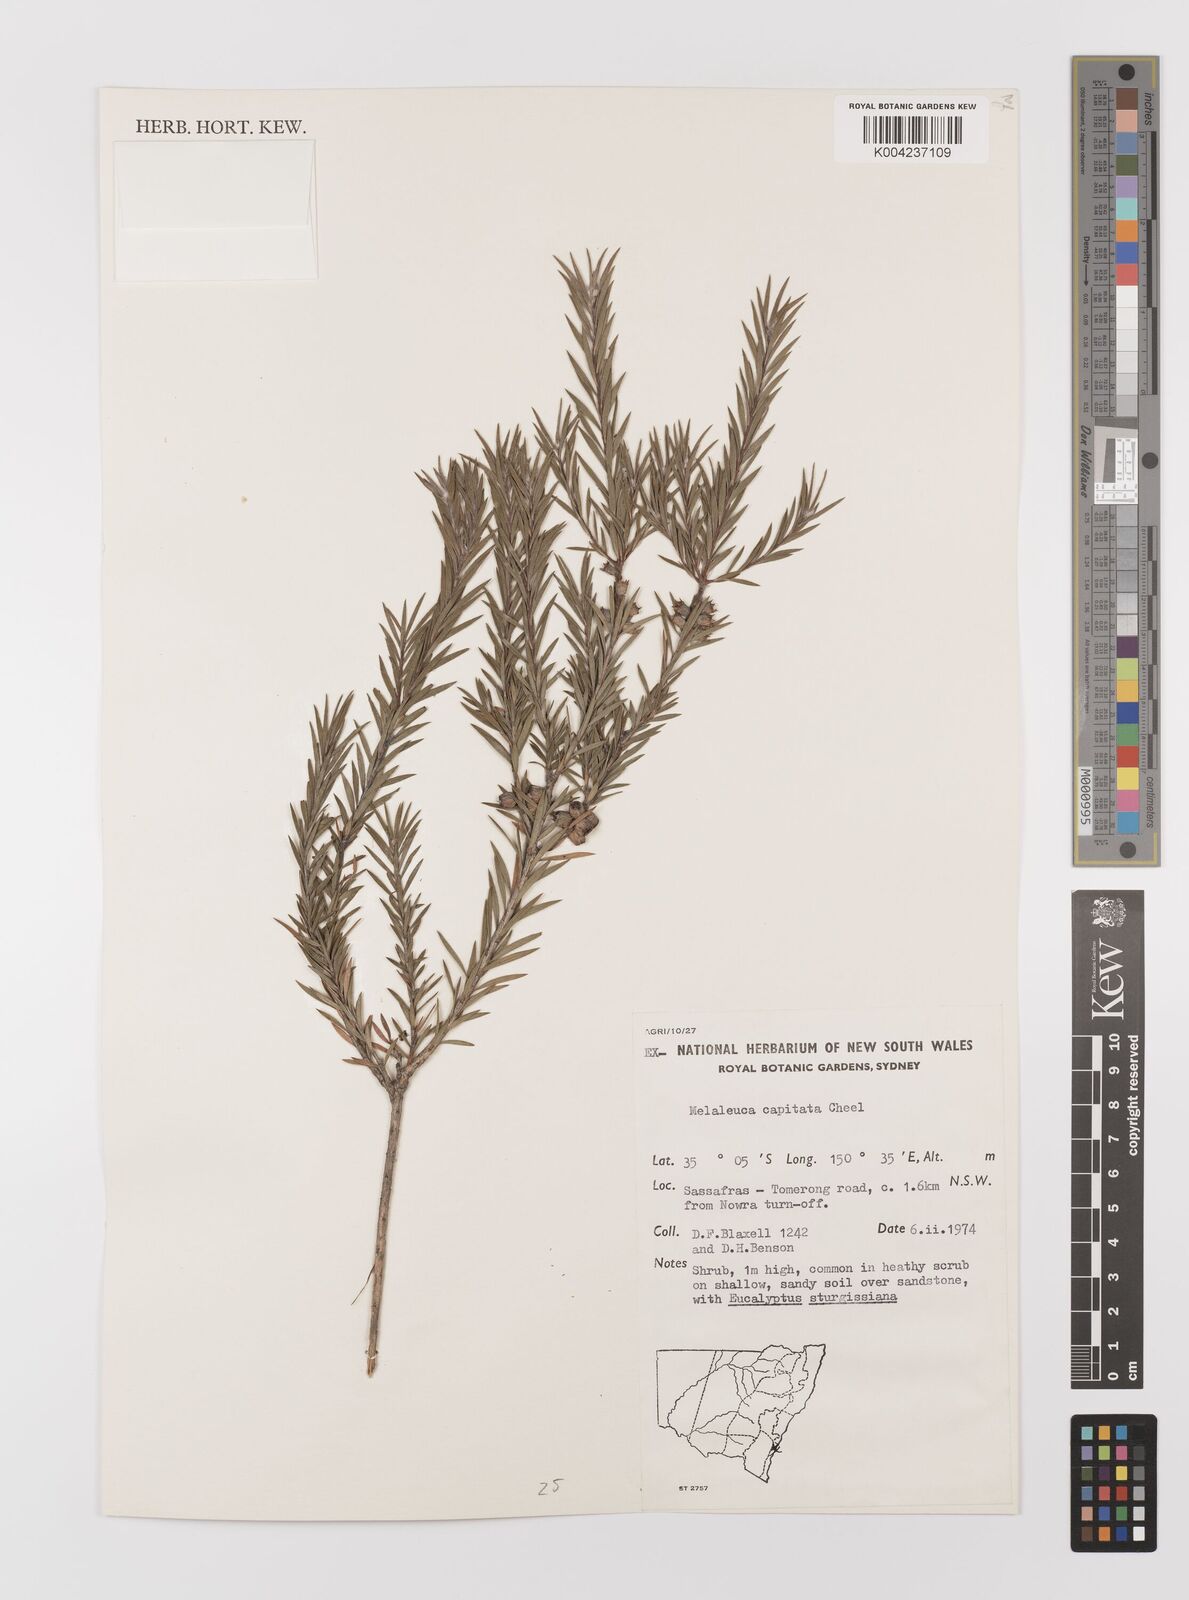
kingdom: Plantae
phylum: Tracheophyta
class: Magnoliopsida
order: Myrtales
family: Myrtaceae
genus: Melaleuca
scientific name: Melaleuca capitata
